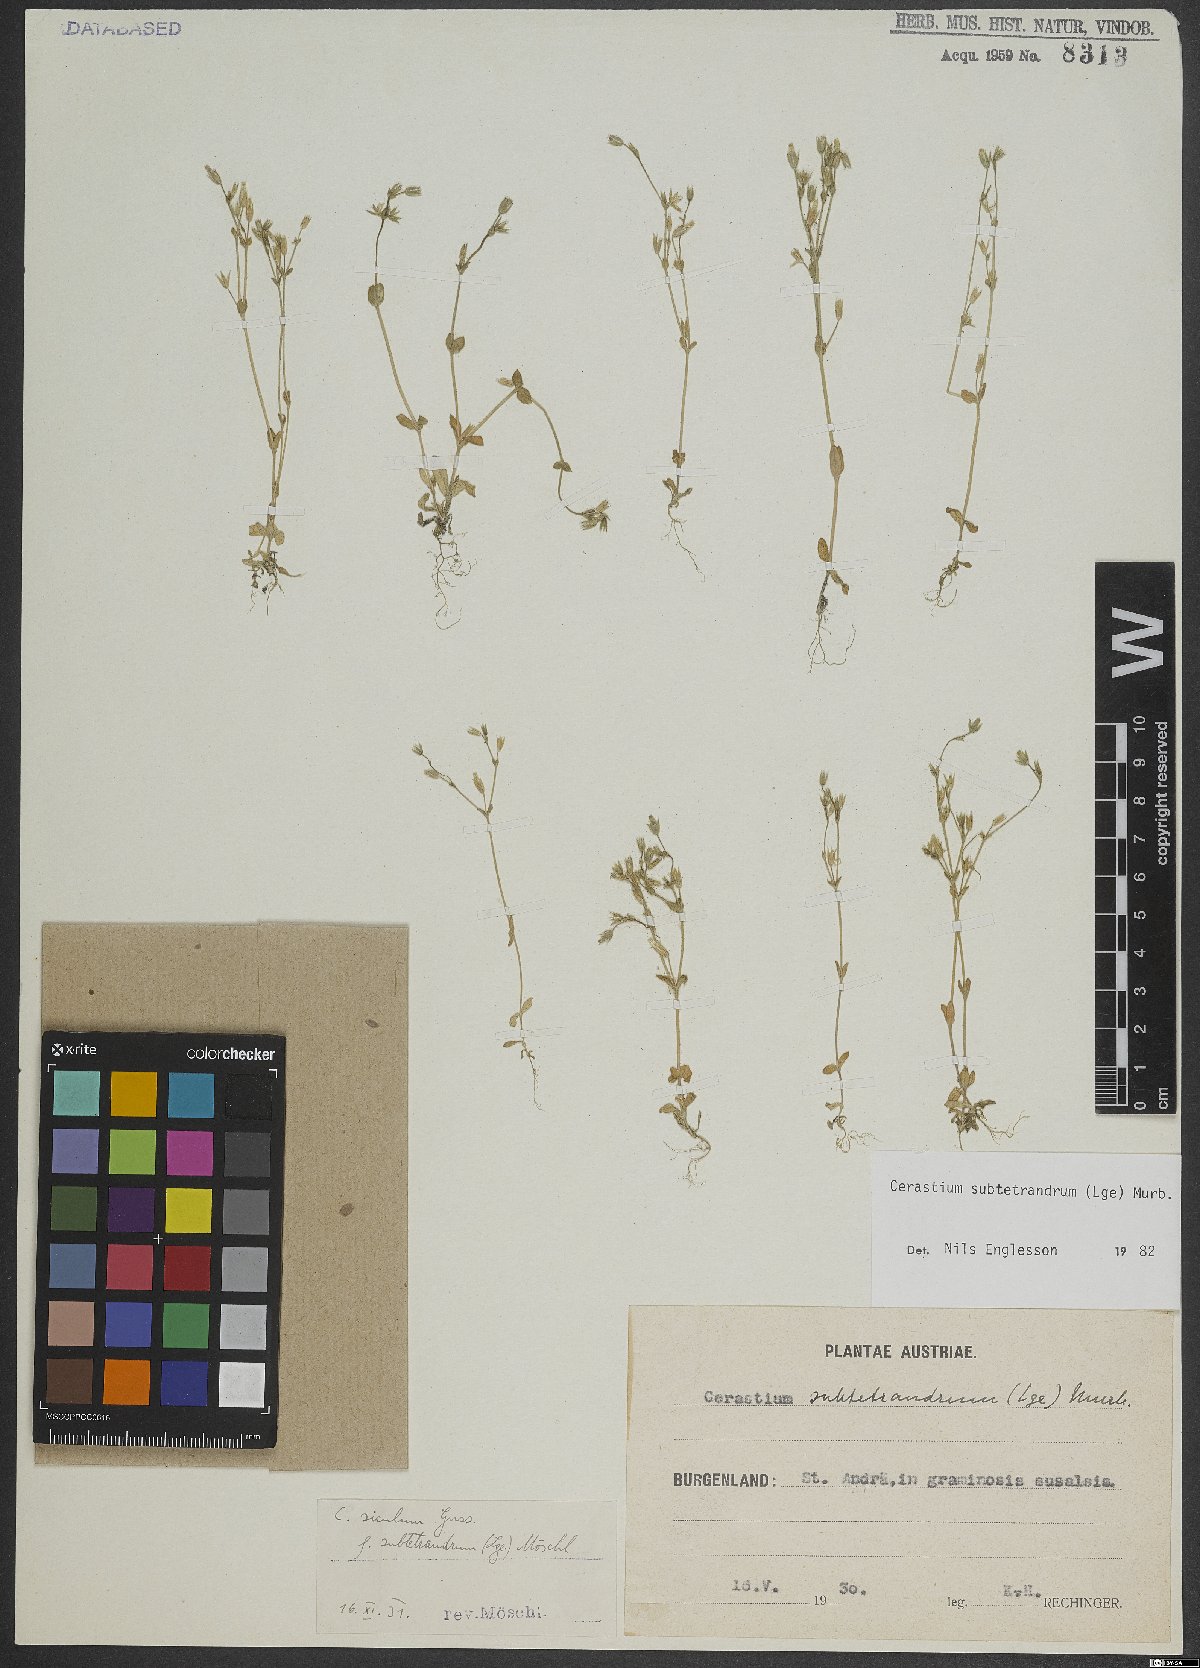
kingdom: Plantae
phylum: Tracheophyta
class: Magnoliopsida
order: Caryophyllales
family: Caryophyllaceae
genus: Cerastium
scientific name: Cerastium pumilum
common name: Dwarf mouse-ear
